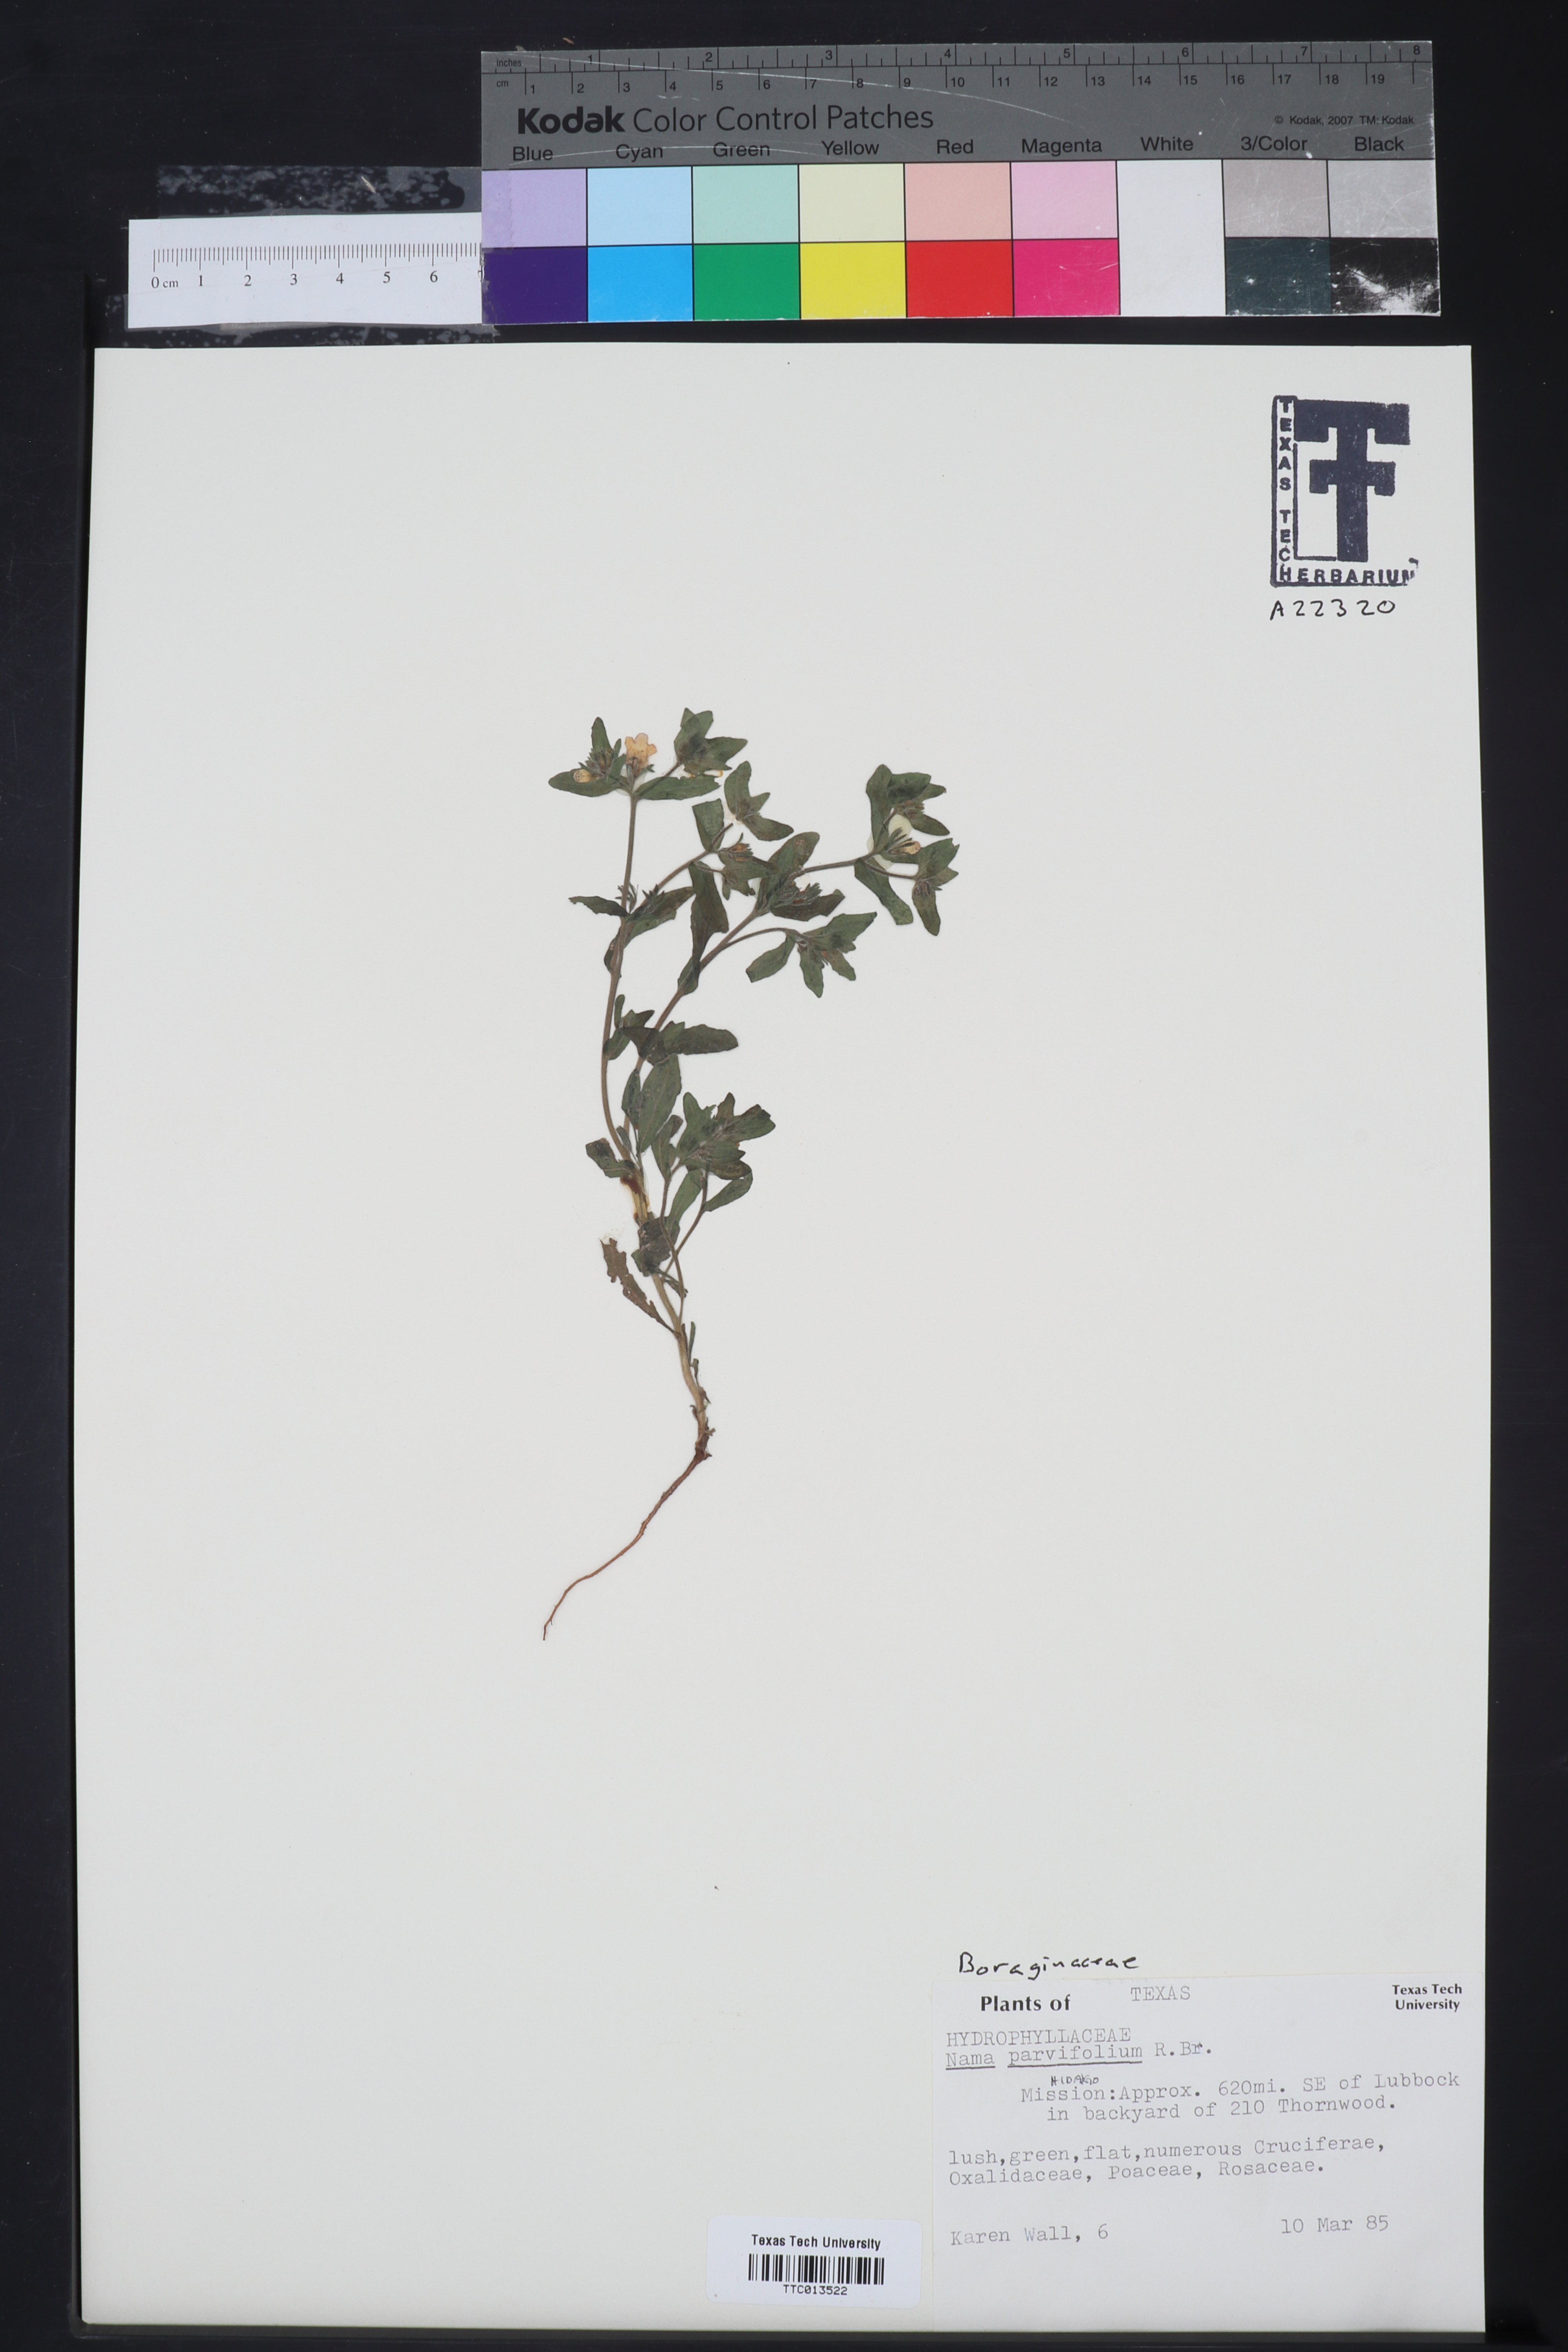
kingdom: Plantae
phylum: Tracheophyta
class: Magnoliopsida
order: Boraginales
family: Namaceae
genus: Nama
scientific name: Nama parvifolia
